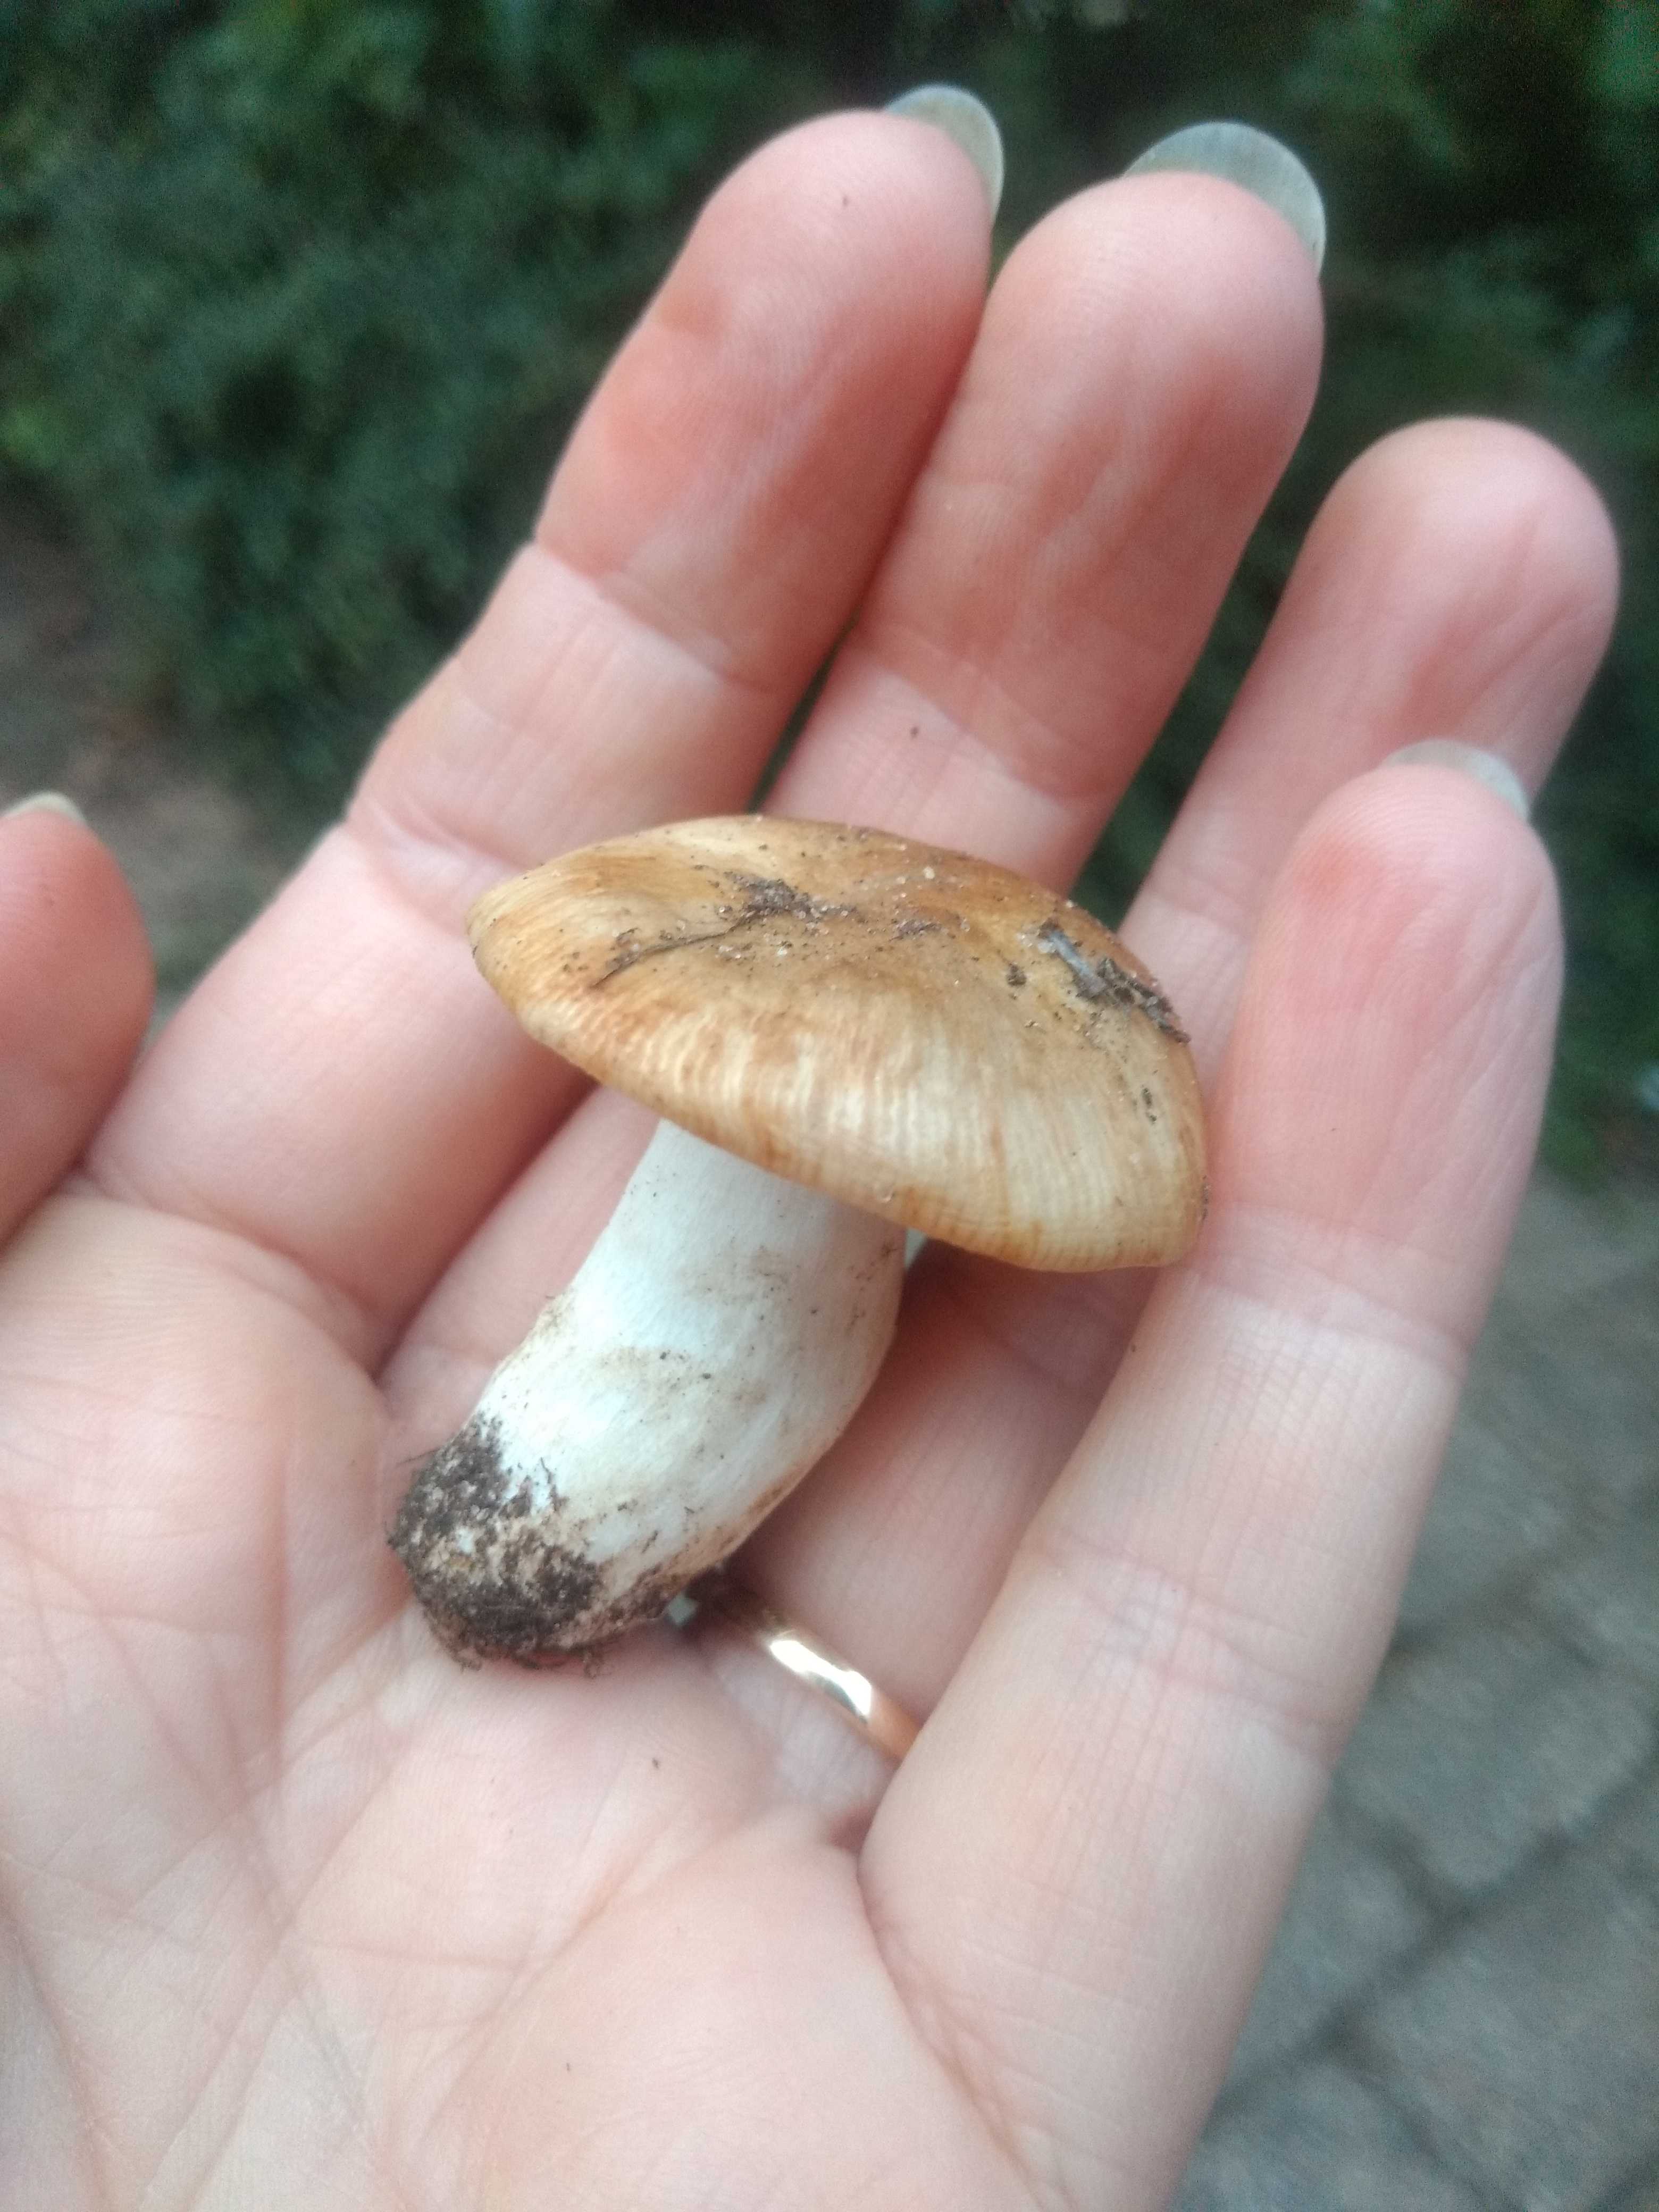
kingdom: Fungi
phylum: Basidiomycota
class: Agaricomycetes
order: Russulales
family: Russulaceae
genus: Russula
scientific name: Russula recondita
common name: mild kam-skørhat
